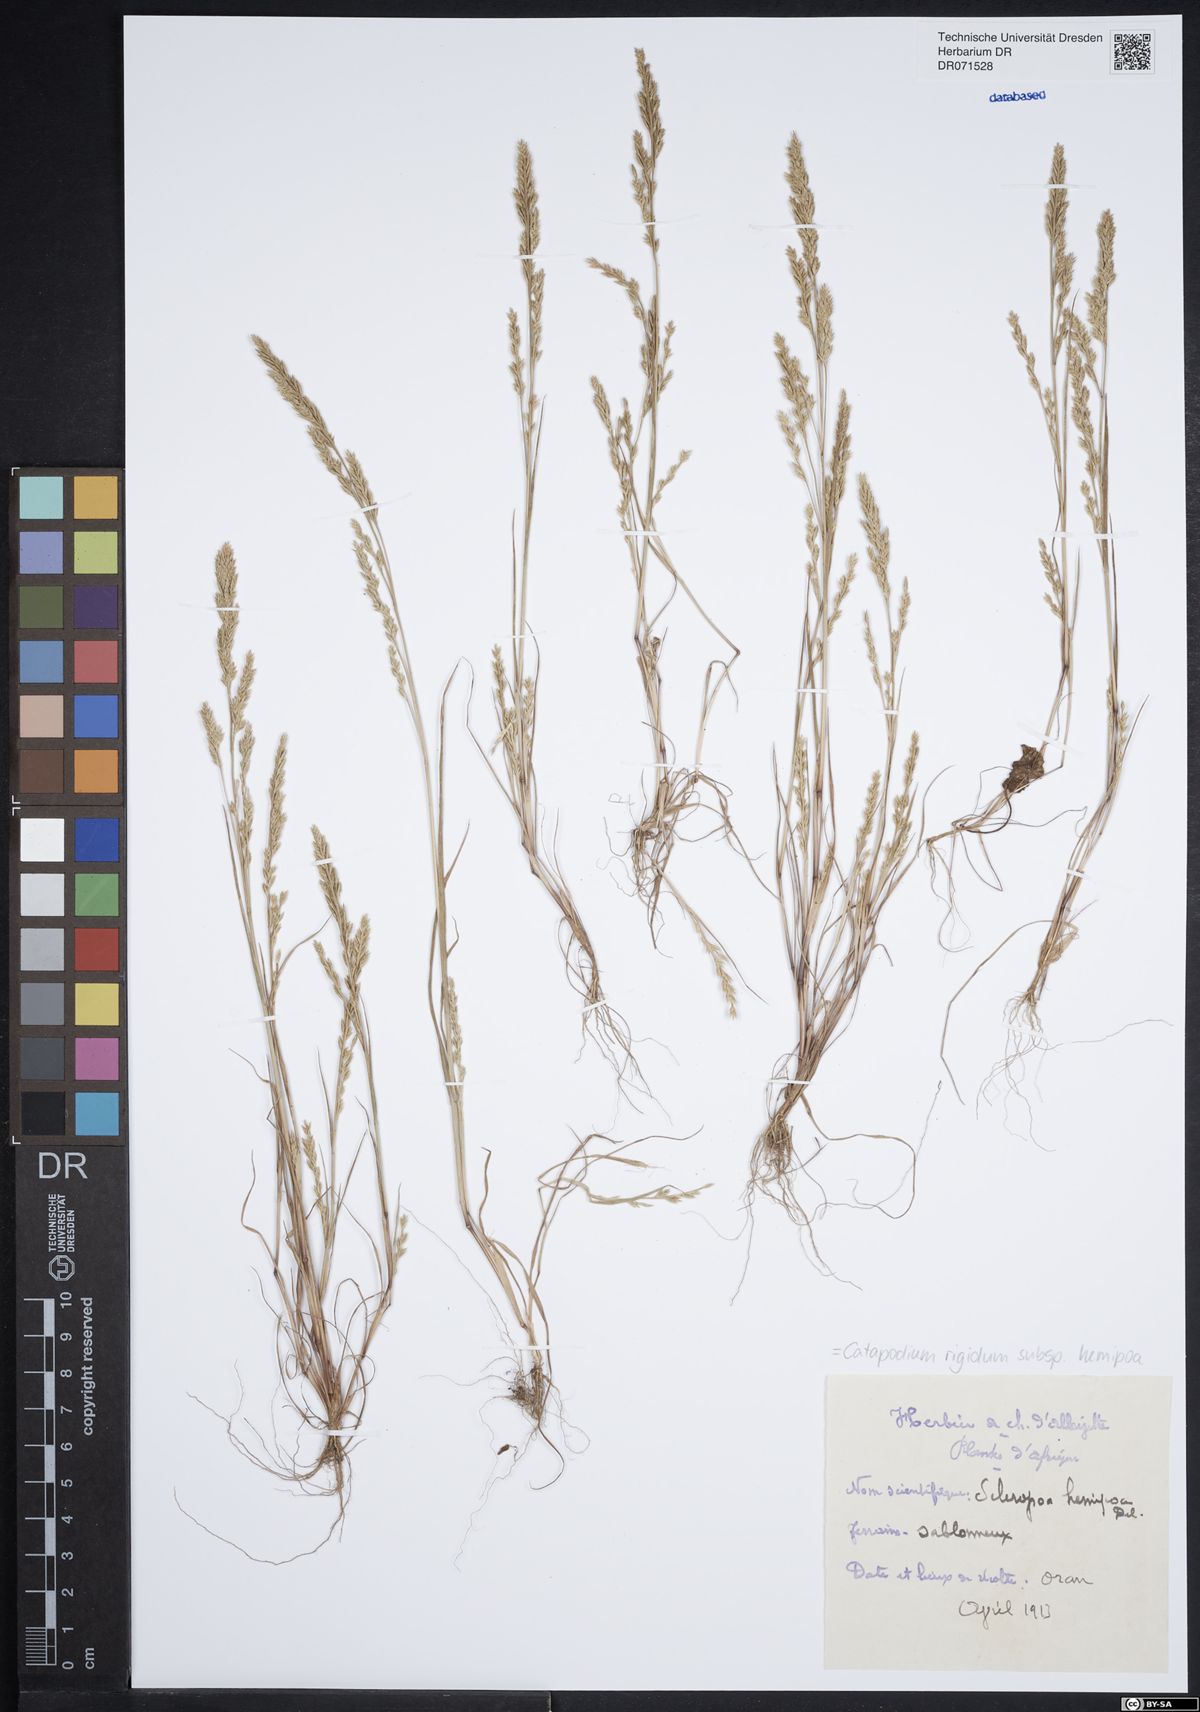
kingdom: Plantae
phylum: Tracheophyta
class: Liliopsida
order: Poales
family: Poaceae
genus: Catapodium
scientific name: Catapodium hemipoa
